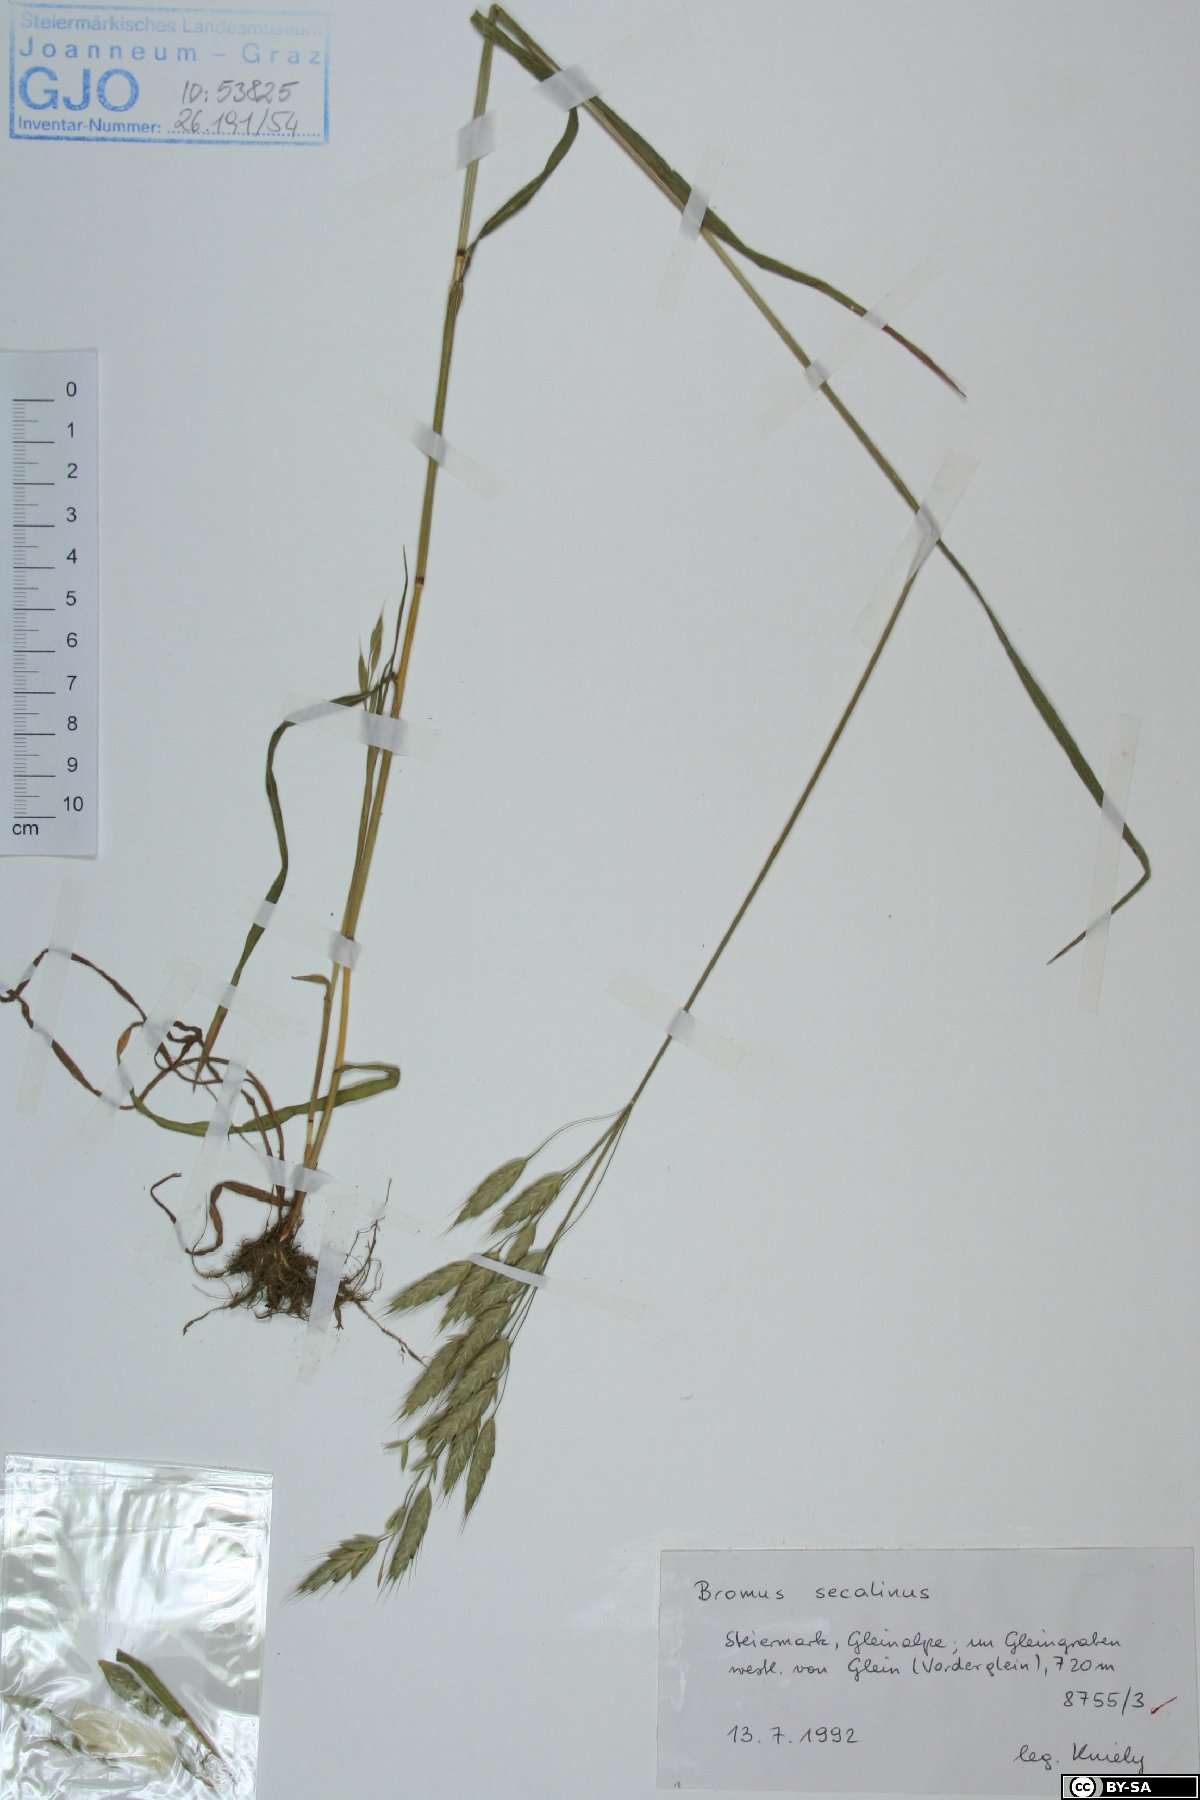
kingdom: Plantae
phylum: Tracheophyta
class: Liliopsida
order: Poales
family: Poaceae
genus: Bromus
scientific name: Bromus secalinus
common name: Rye brome
